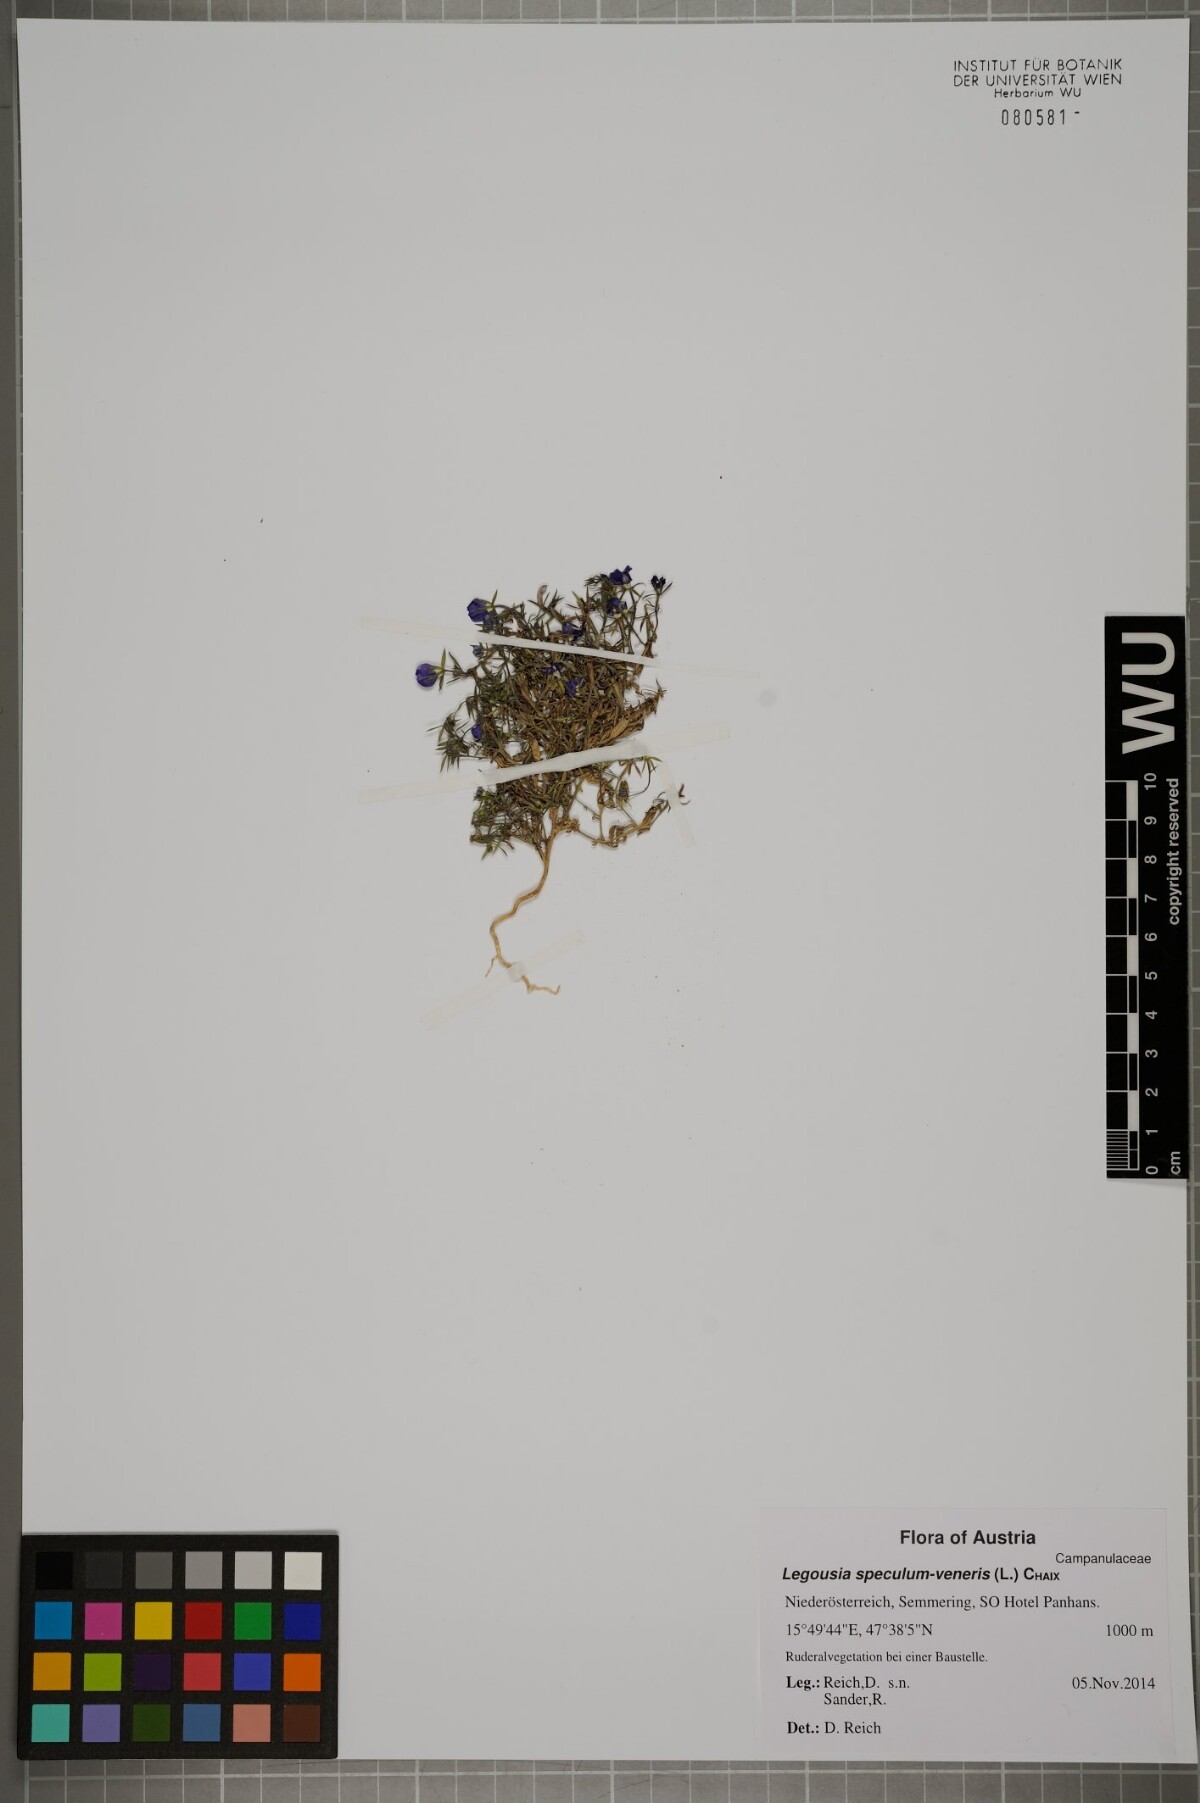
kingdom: Plantae
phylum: Tracheophyta
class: Magnoliopsida
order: Asterales
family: Campanulaceae
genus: Legousia
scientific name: Legousia speculum-veneris
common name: Large venus's-looking-glass
